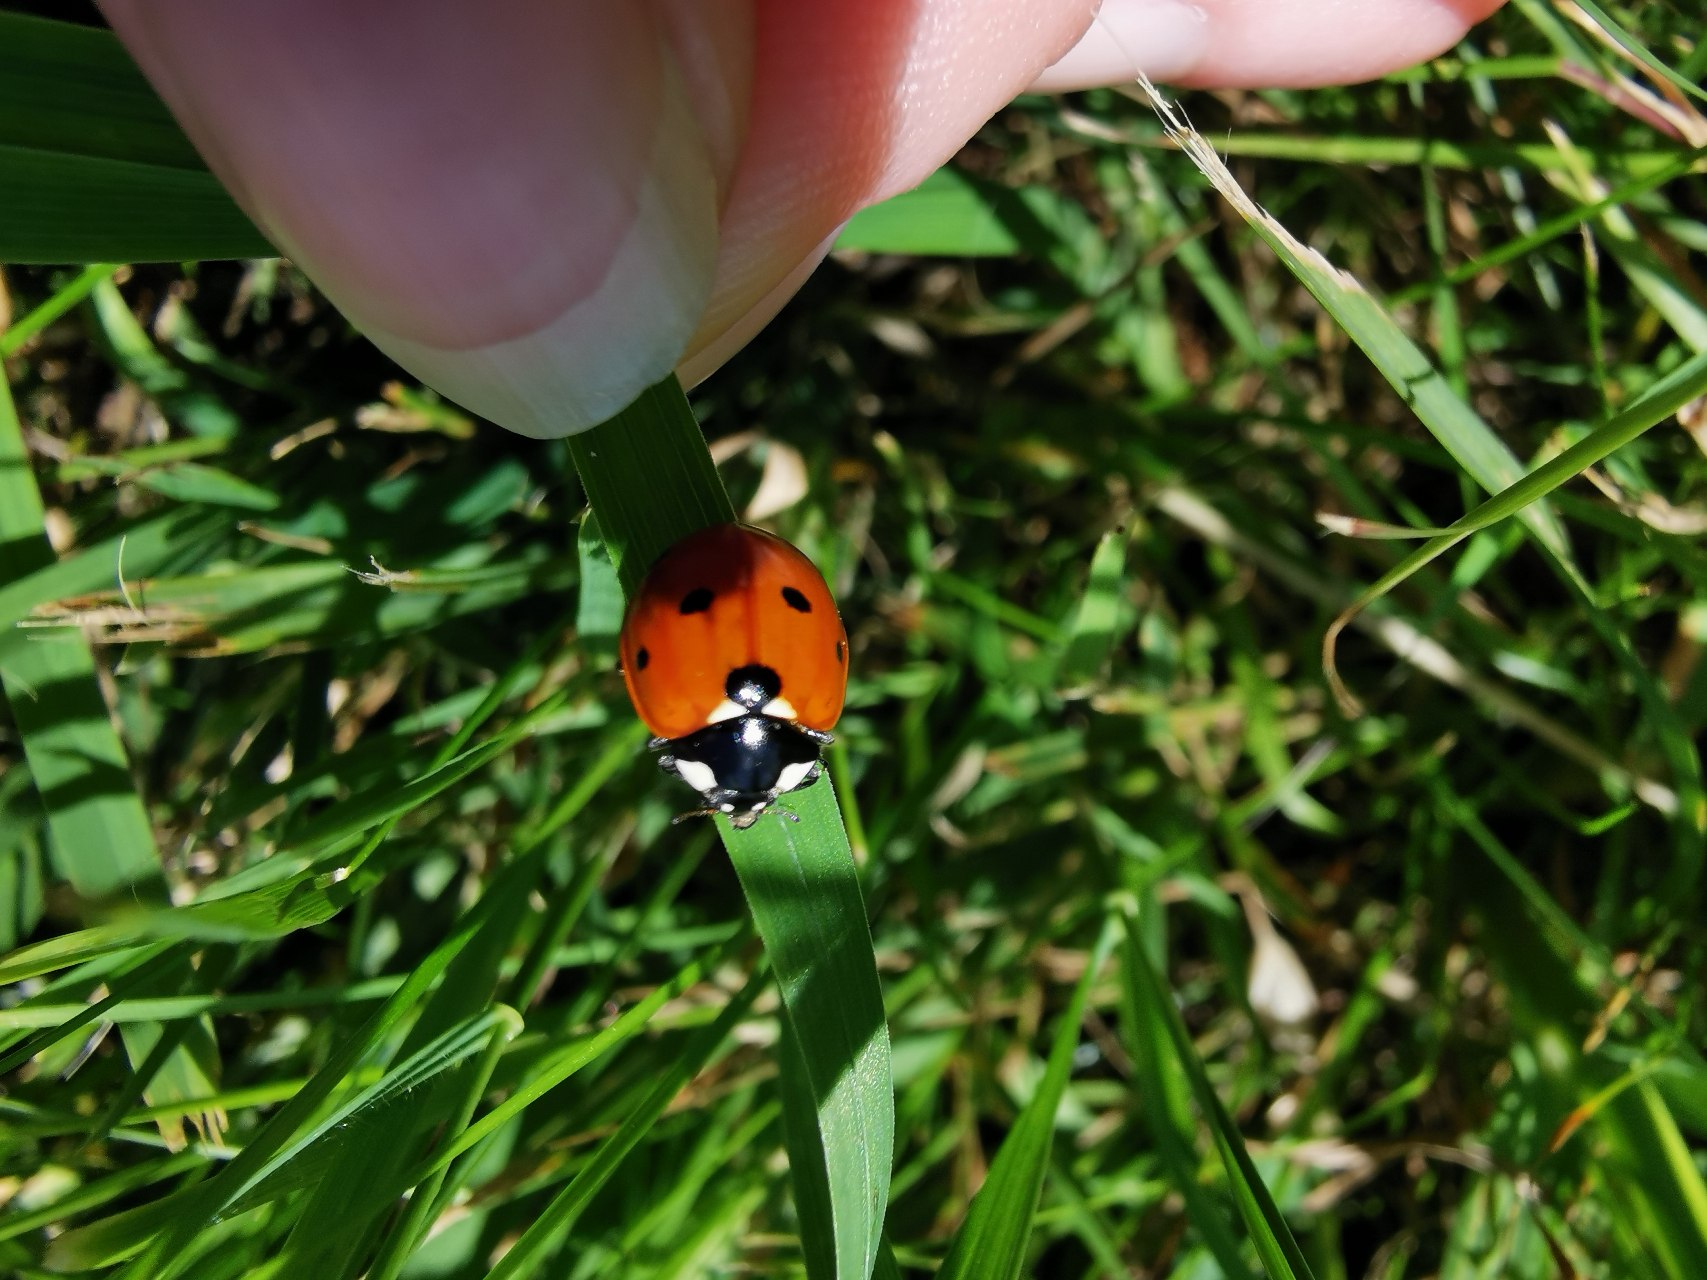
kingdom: Animalia
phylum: Arthropoda
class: Insecta
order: Coleoptera
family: Coccinellidae
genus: Coccinella
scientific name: Coccinella septempunctata
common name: Syvplettet mariehøne
